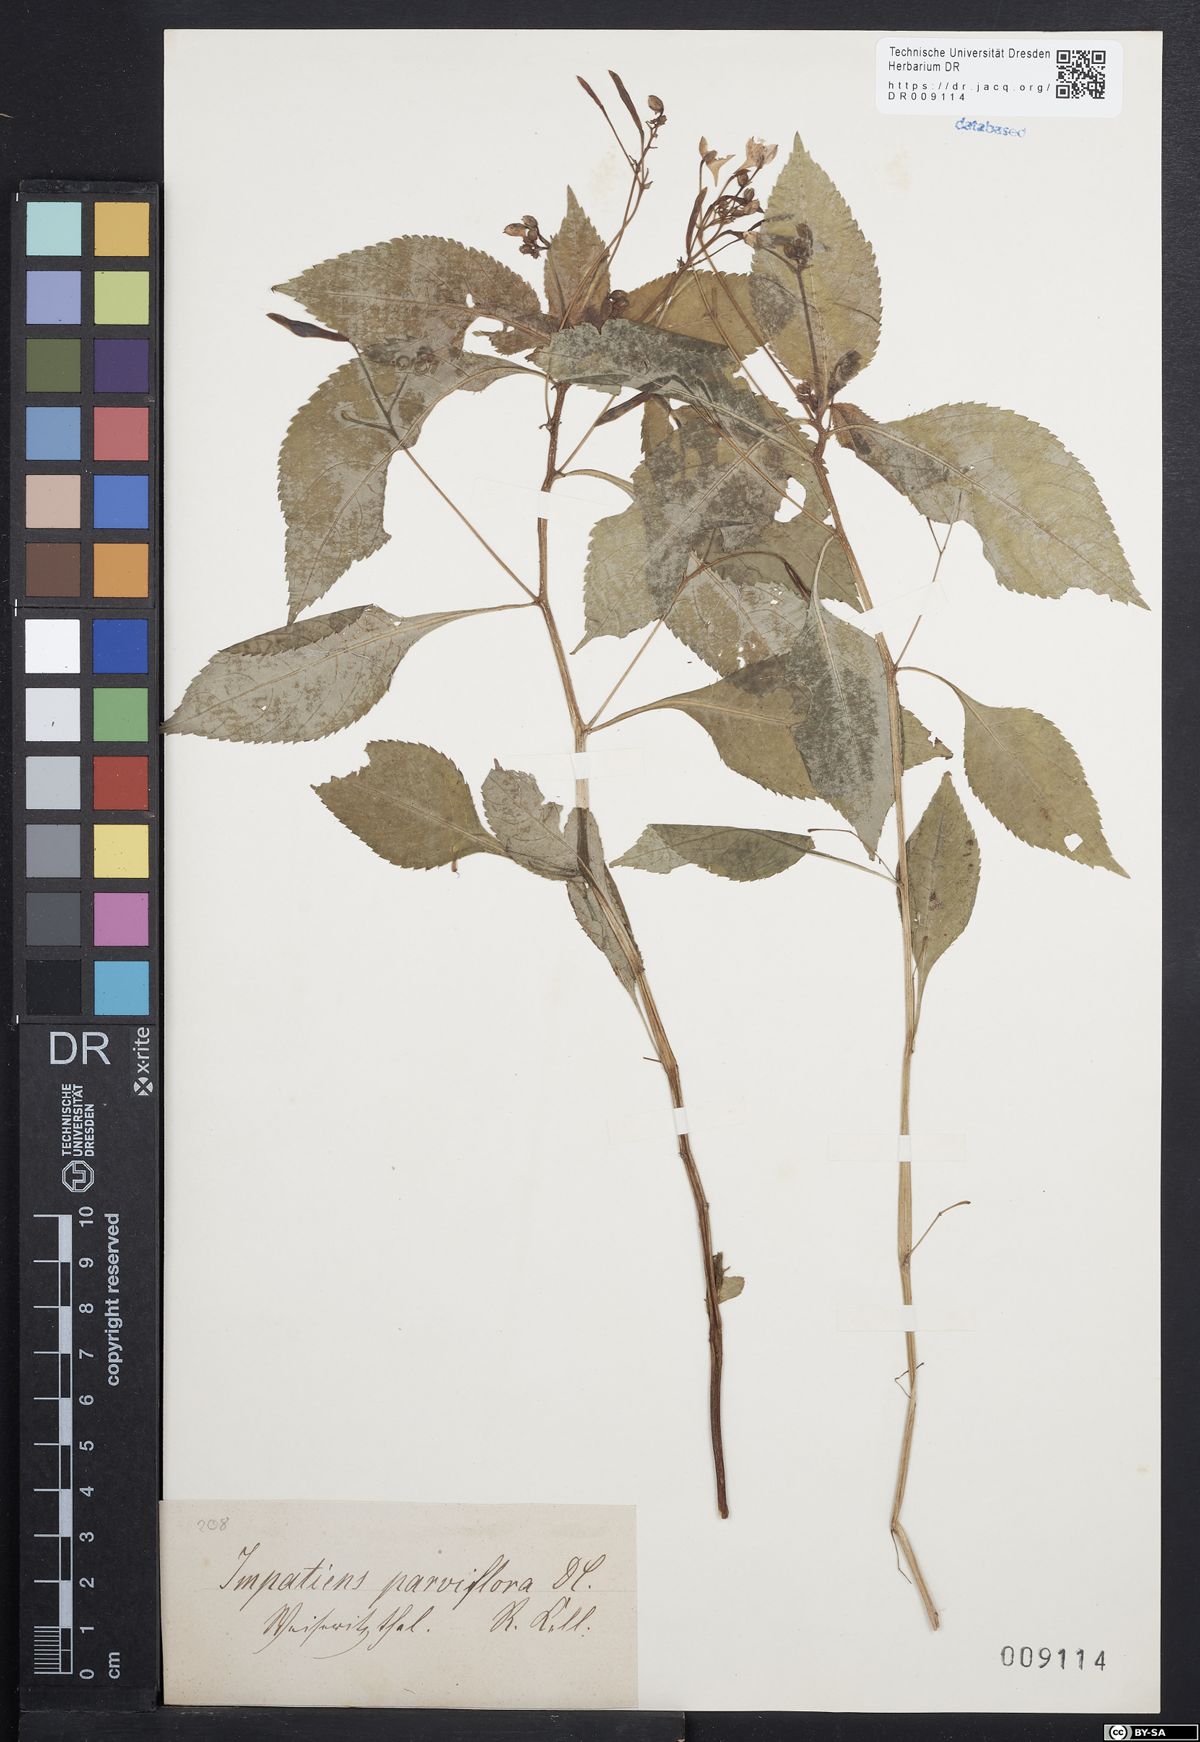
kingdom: Plantae
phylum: Tracheophyta
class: Magnoliopsida
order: Ericales
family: Balsaminaceae
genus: Impatiens
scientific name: Impatiens parviflora
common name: Small balsam
